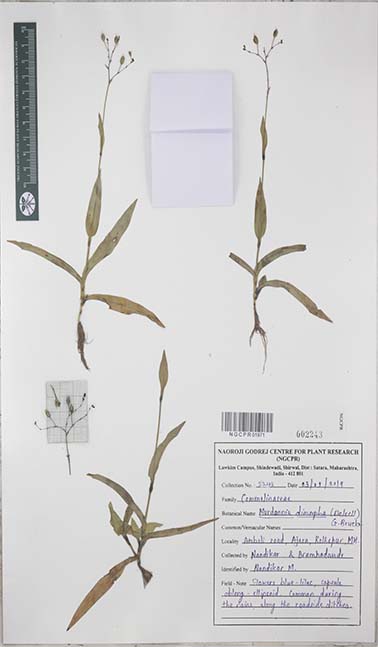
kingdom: Plantae
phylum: Tracheophyta
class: Liliopsida
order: Commelinales
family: Commelinaceae
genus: Murdannia
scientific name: Murdannia dimorpha
